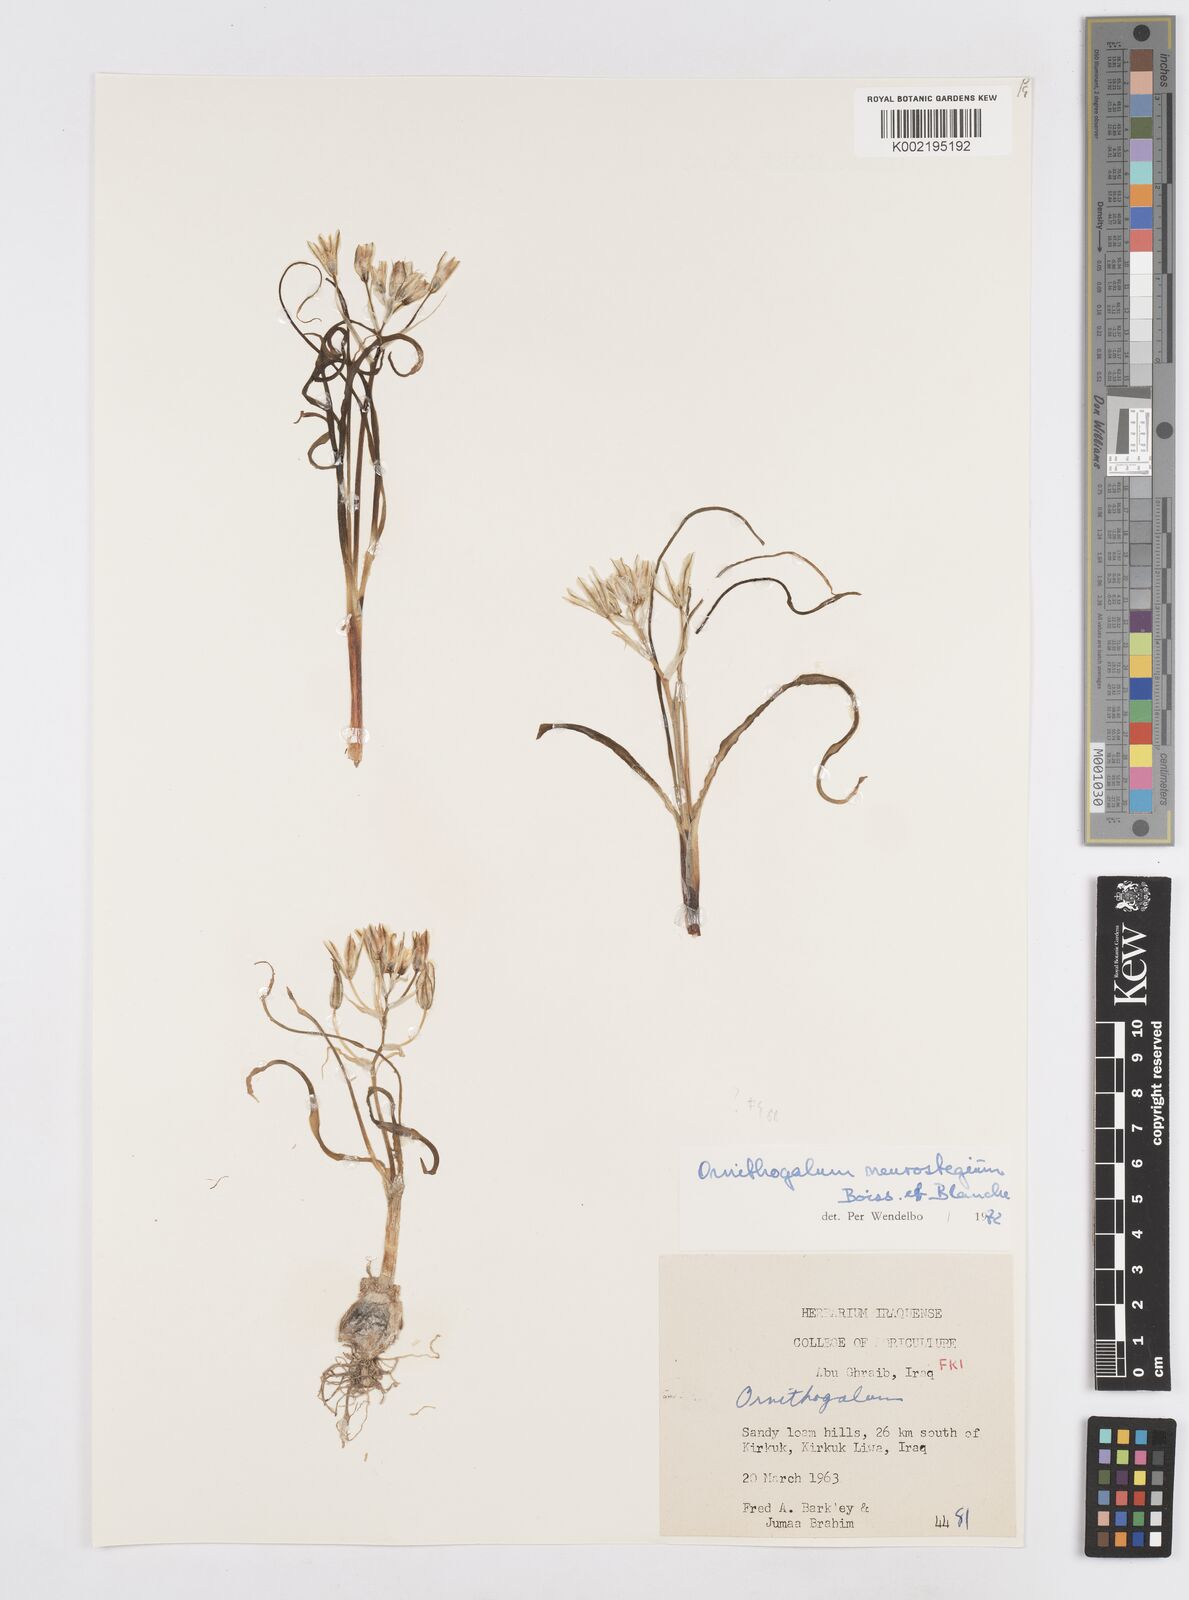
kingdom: Plantae
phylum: Tracheophyta
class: Liliopsida
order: Asparagales
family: Asparagaceae
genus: Ornithogalum
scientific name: Ornithogalum neurostegium
